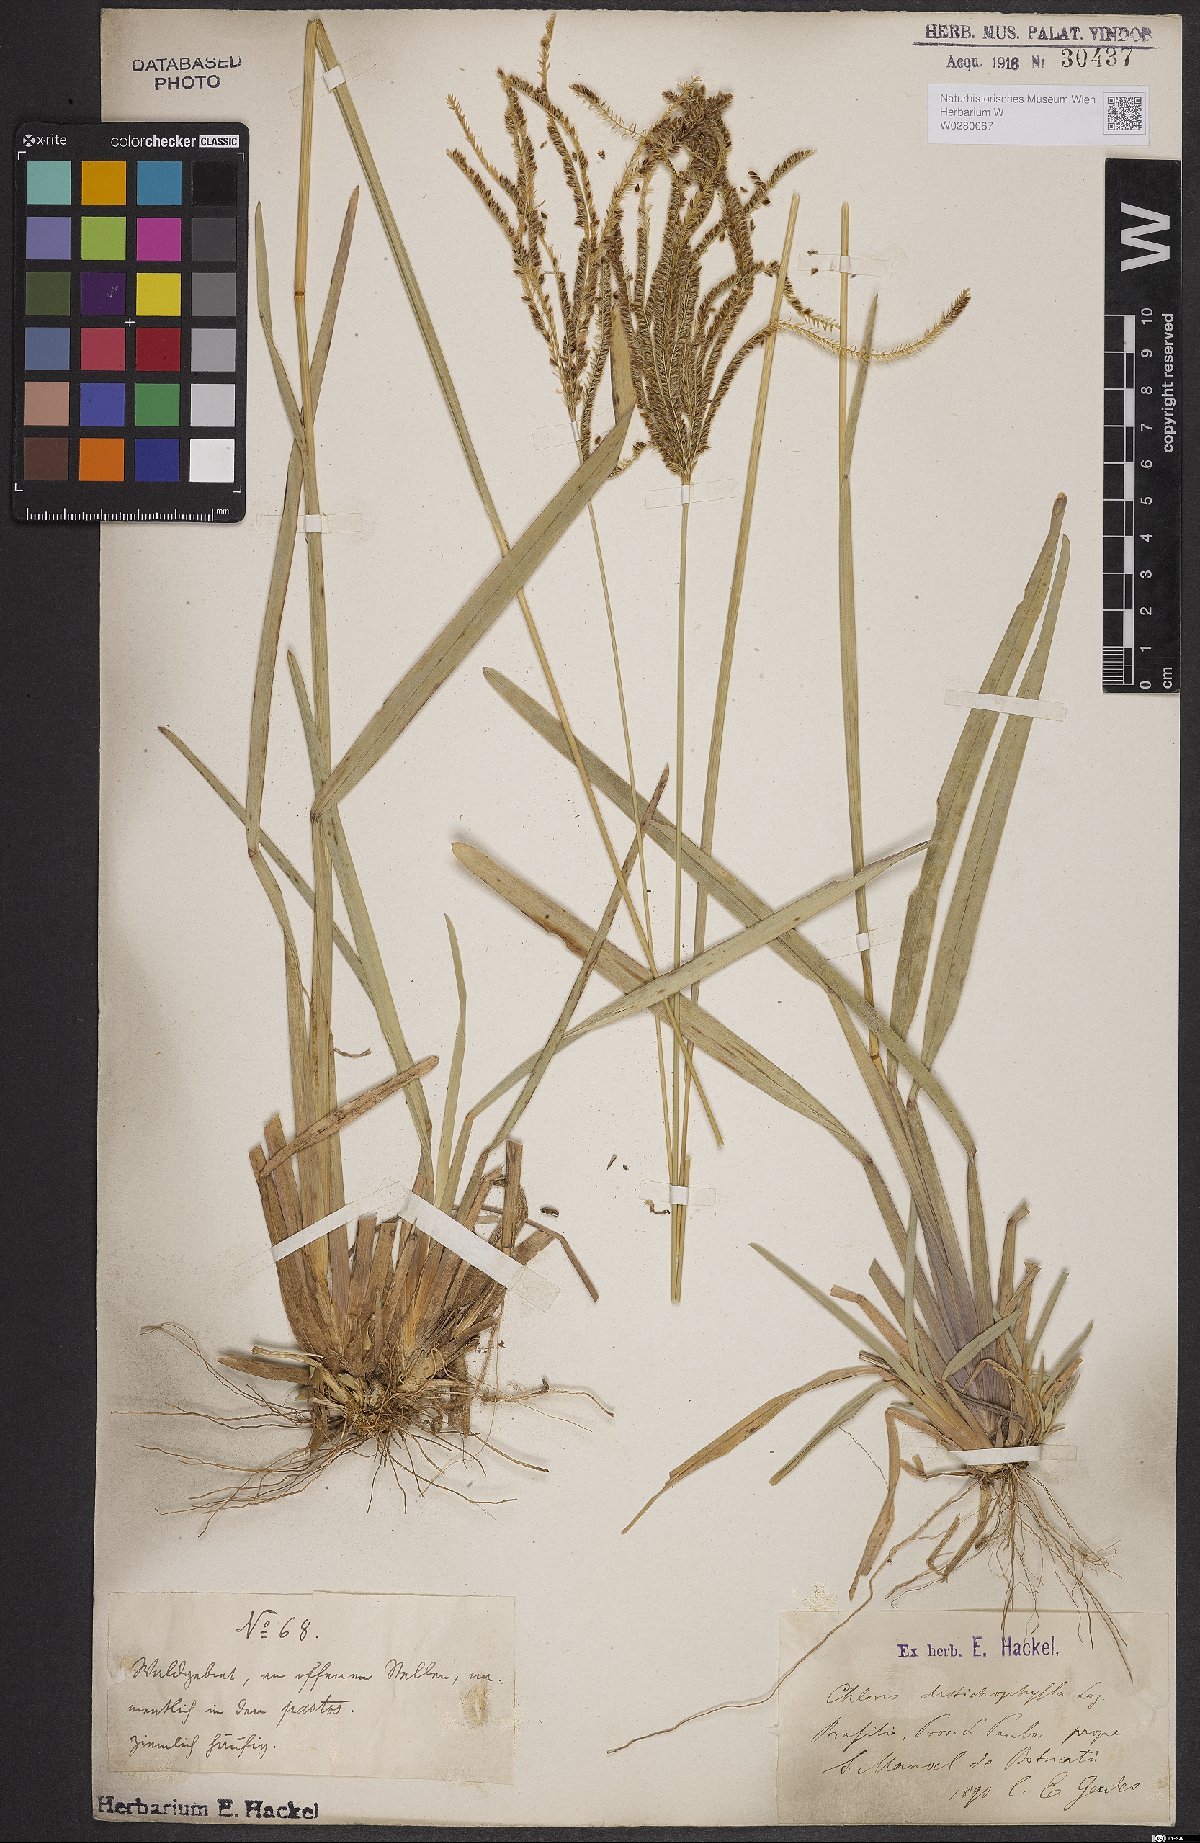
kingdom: Plantae
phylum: Tracheophyta
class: Liliopsida
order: Poales
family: Poaceae
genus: Eustachys
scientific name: Eustachys distichophylla
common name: Weeping fingergrass
